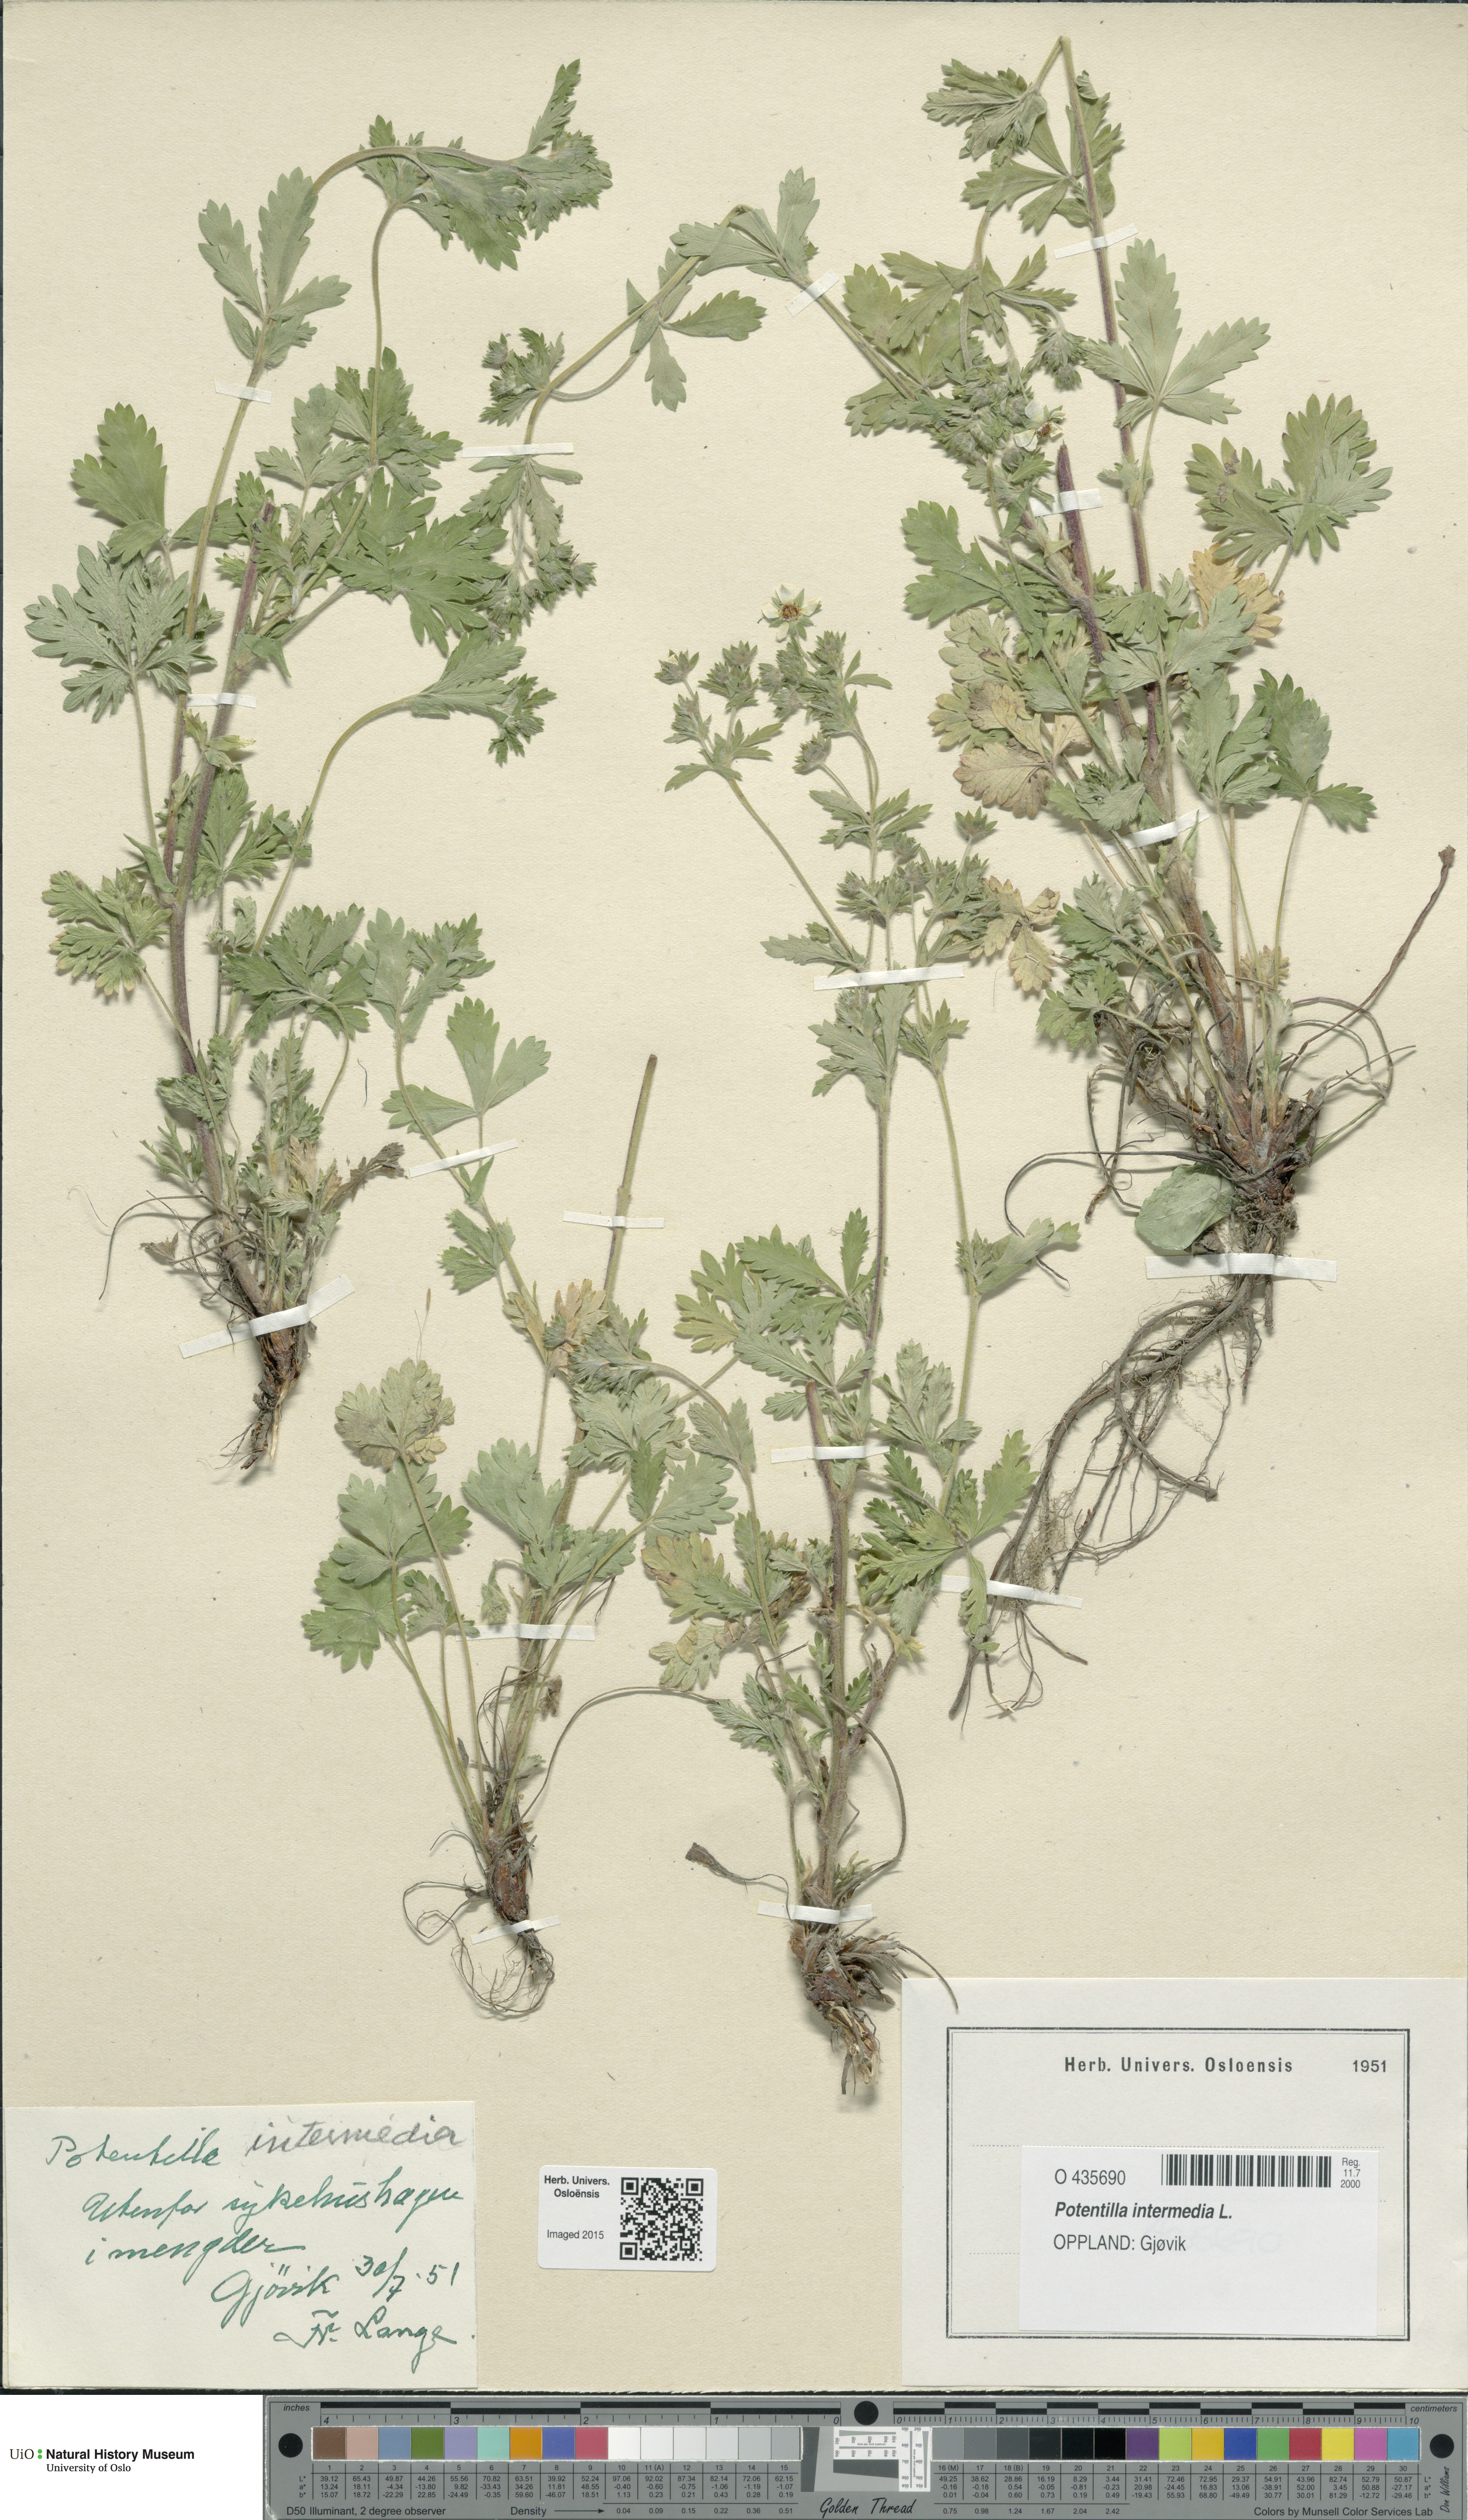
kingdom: Plantae
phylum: Tracheophyta
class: Magnoliopsida
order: Rosales
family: Rosaceae
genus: Potentilla
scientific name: Potentilla intermedia
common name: Downy cinquefoil
